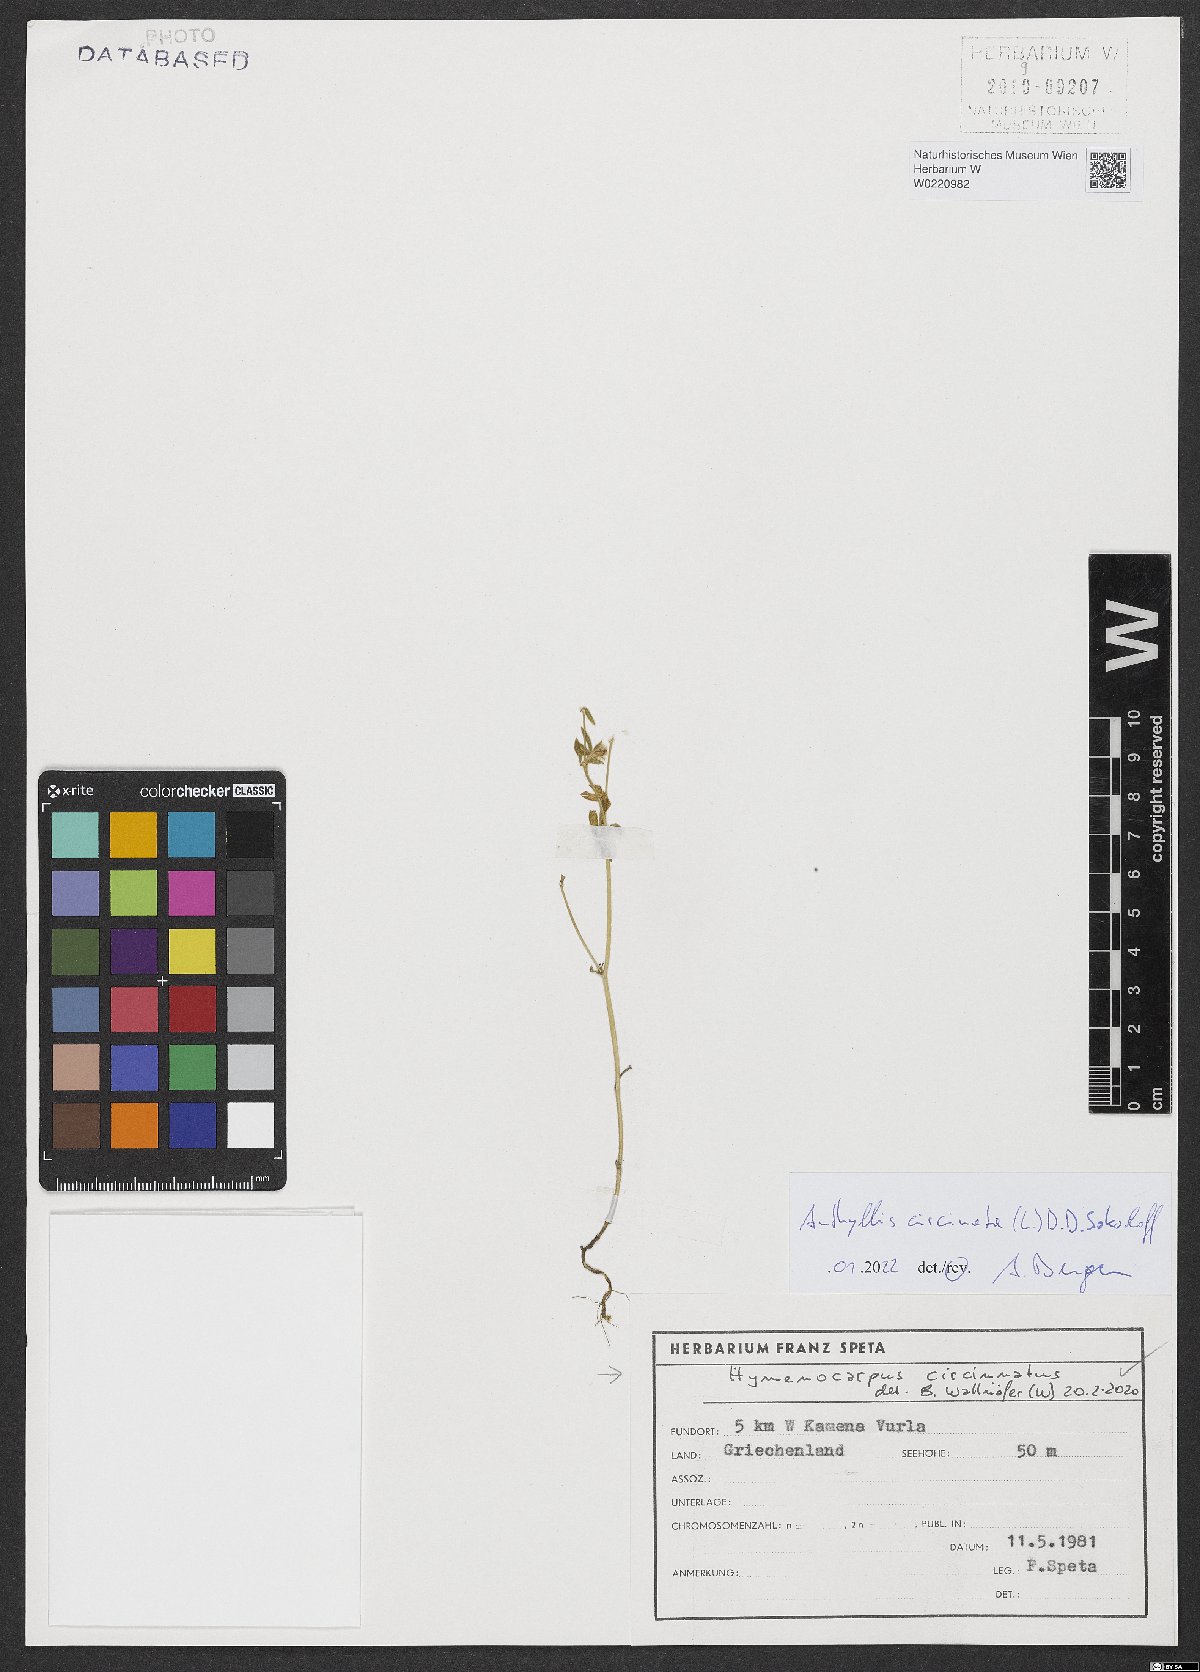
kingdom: Plantae
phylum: Tracheophyta
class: Magnoliopsida
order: Fabales
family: Fabaceae
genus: Anthyllis
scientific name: Anthyllis circinnata
